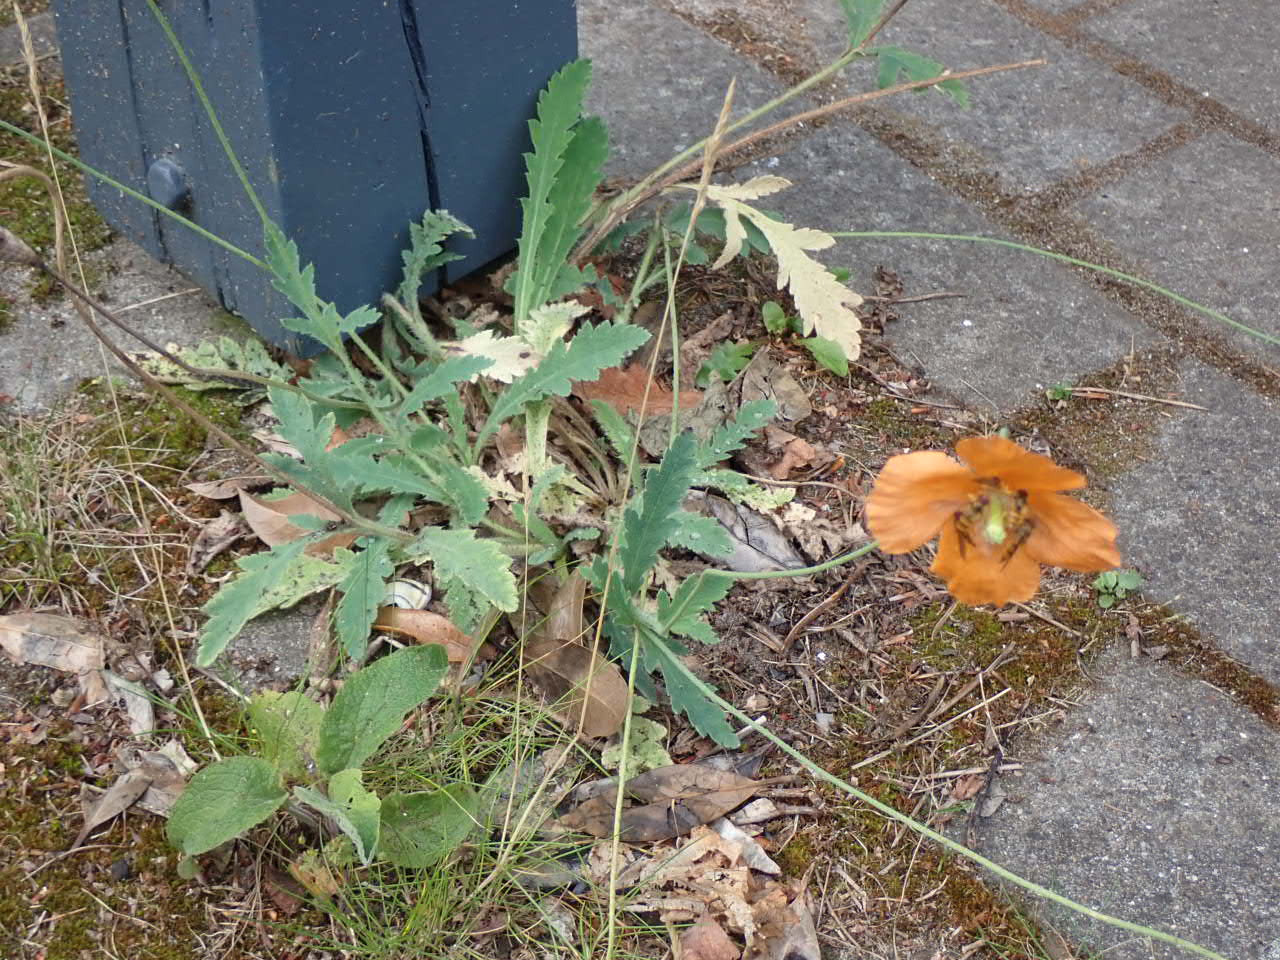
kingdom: Plantae
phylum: Tracheophyta
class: Magnoliopsida
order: Ranunculales
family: Papaveraceae
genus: Papaver
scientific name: Papaver atlanticum
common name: Atlas-valmue
